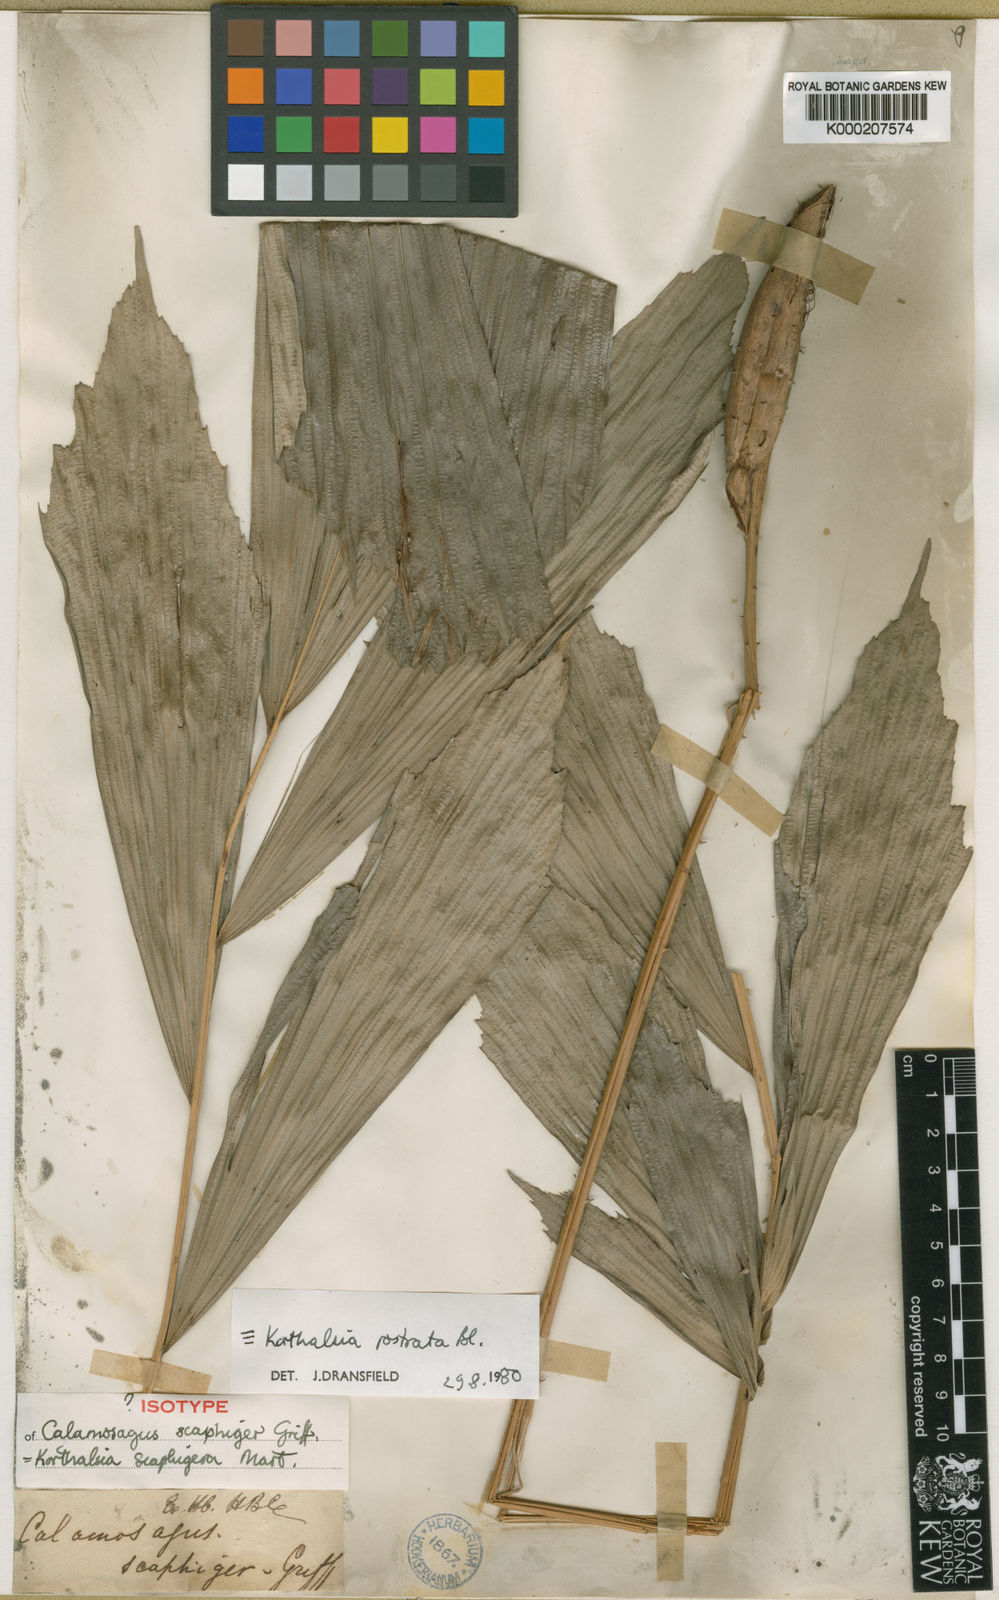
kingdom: Plantae
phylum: Tracheophyta
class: Liliopsida
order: Arecales
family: Arecaceae
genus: Korthalsia
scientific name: Korthalsia rostrata
